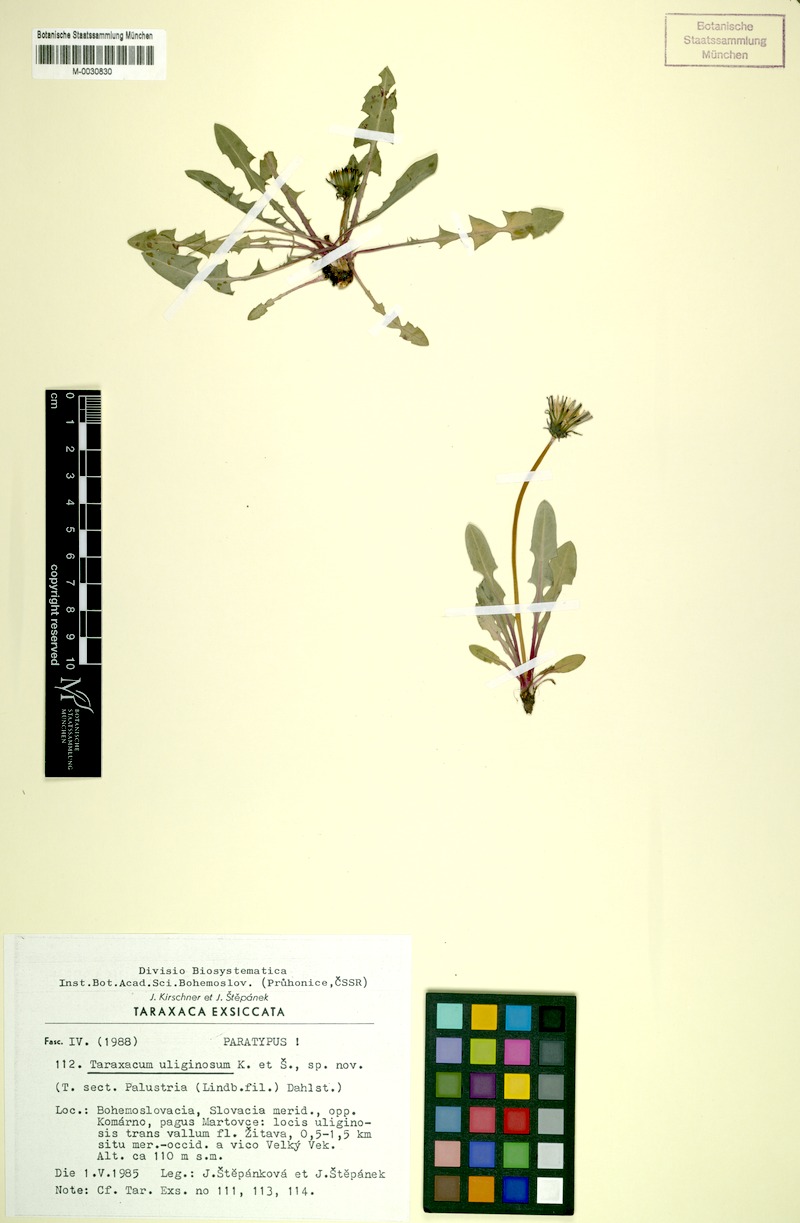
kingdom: Plantae
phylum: Tracheophyta
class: Magnoliopsida
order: Asterales
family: Asteraceae
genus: Taraxacum
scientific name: Taraxacum uliginosum
